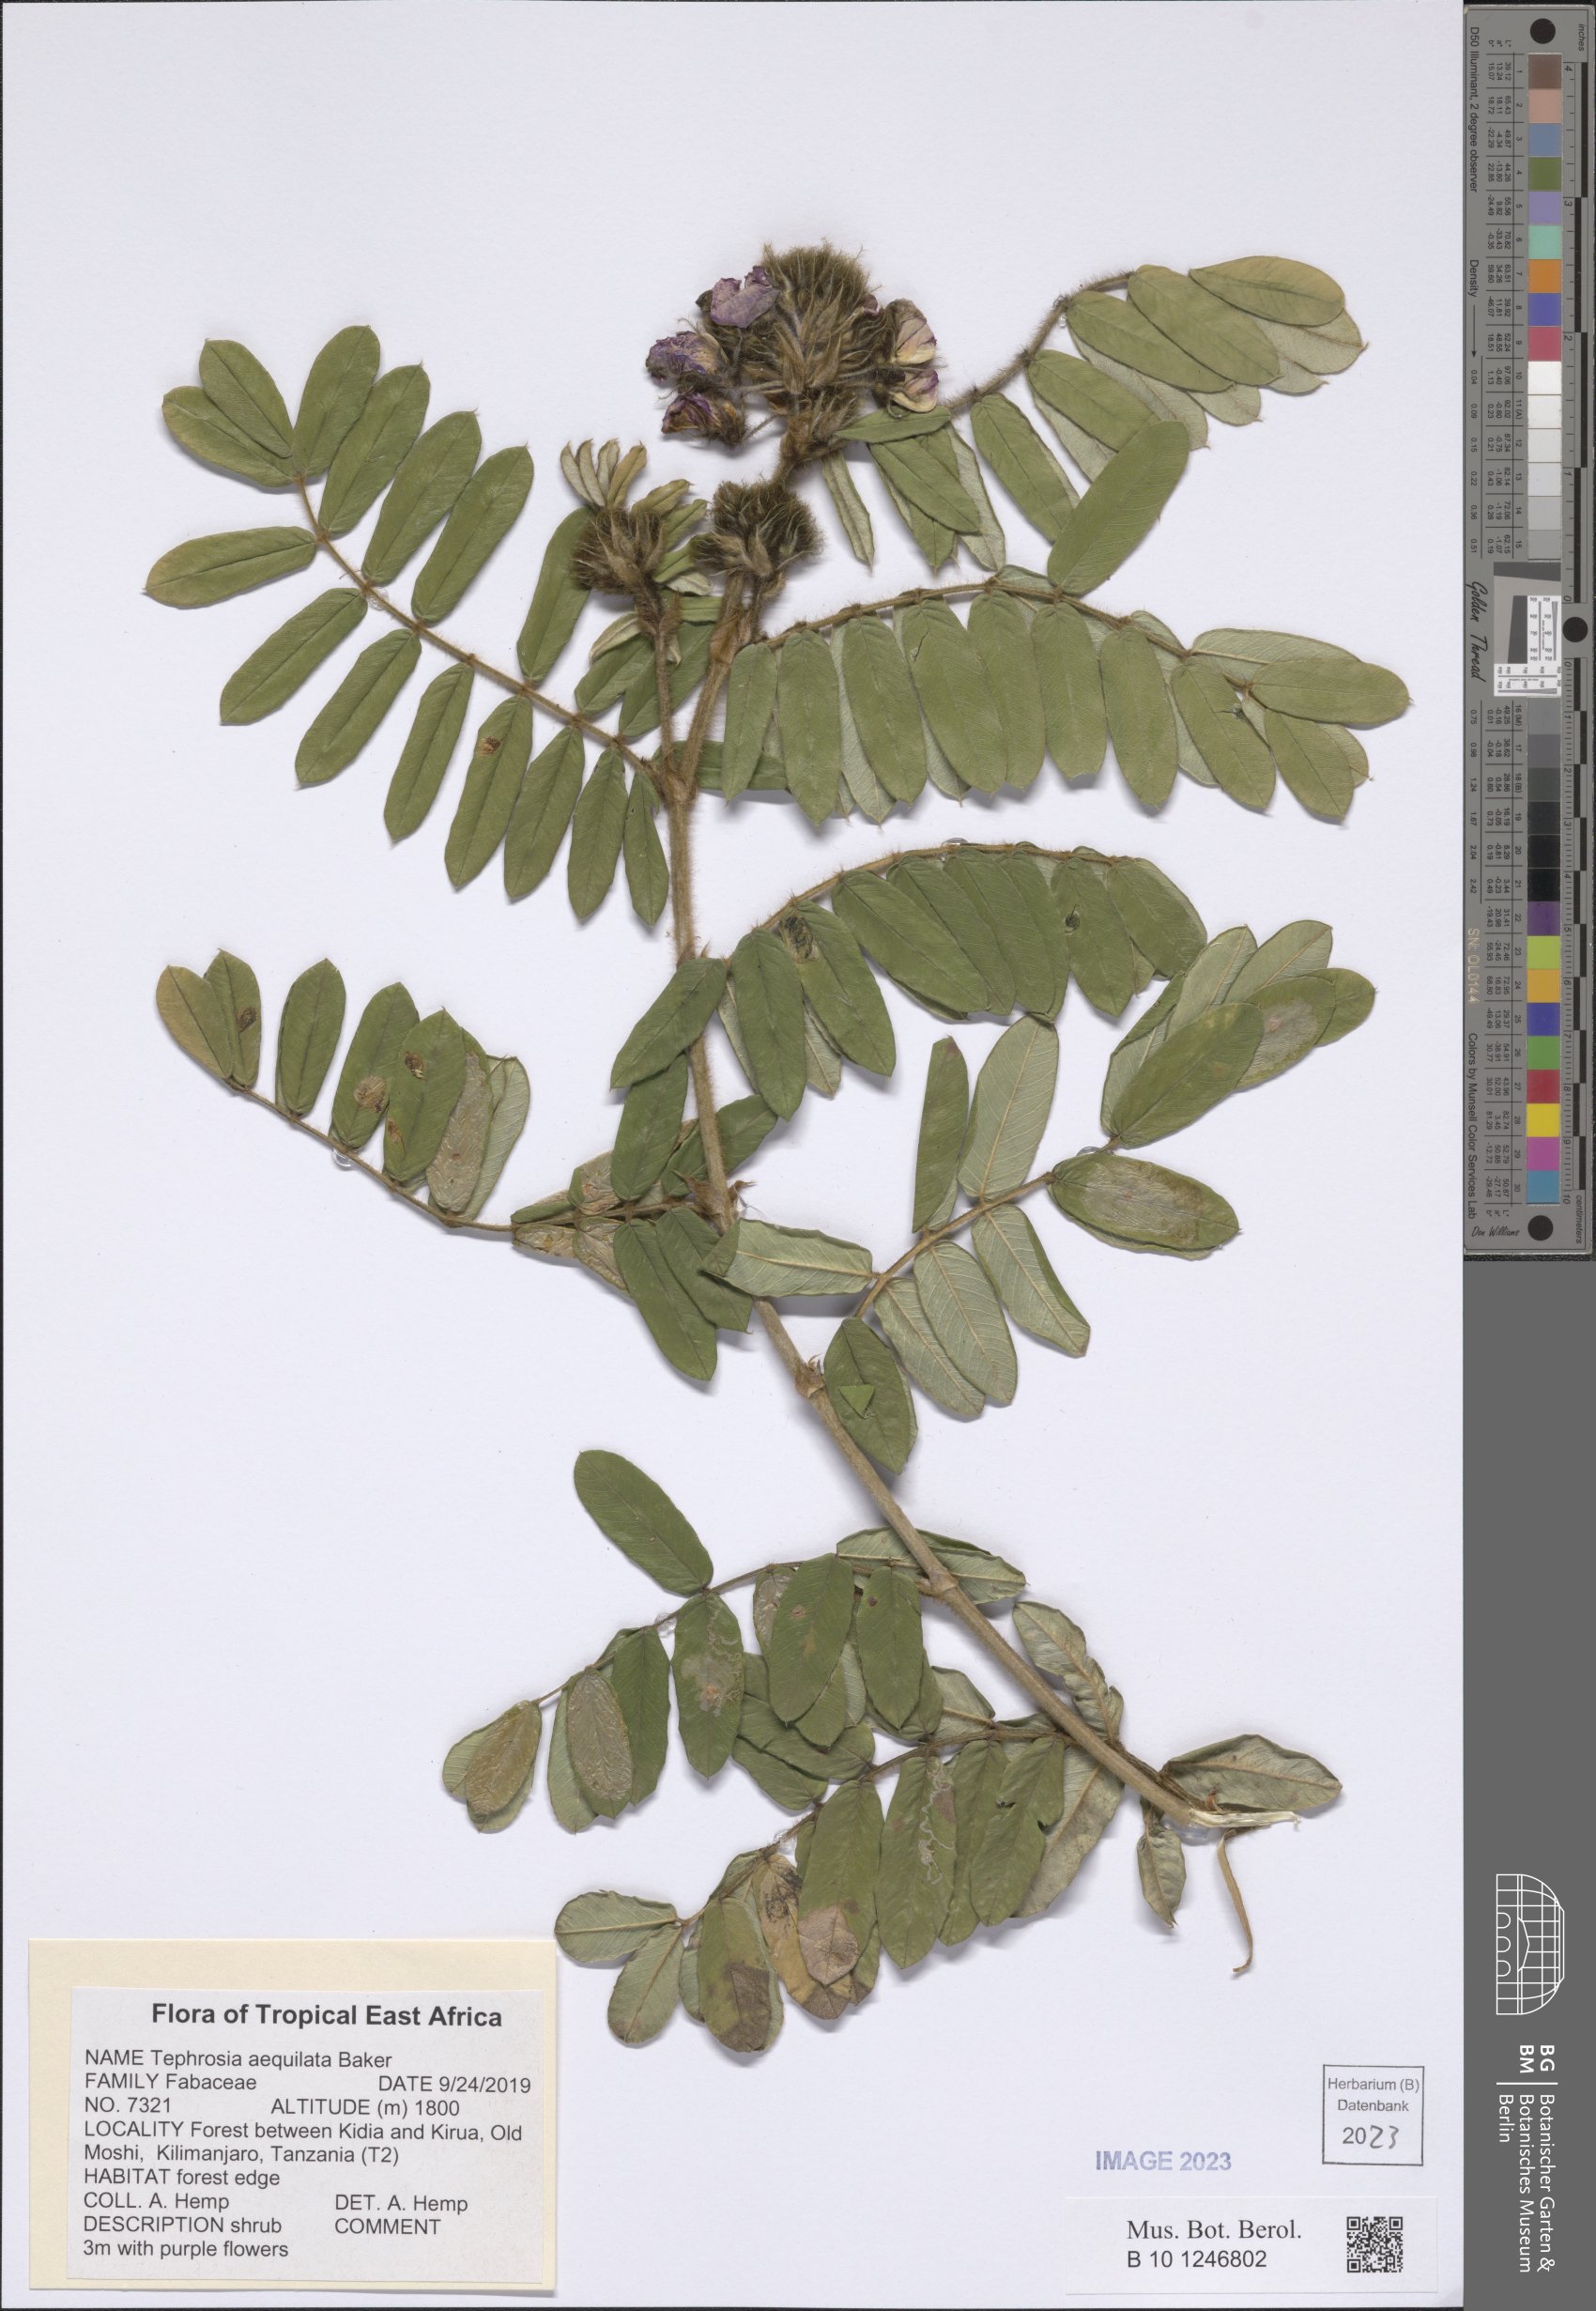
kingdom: Plantae
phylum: Tracheophyta
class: Magnoliopsida
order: Fabales
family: Fabaceae
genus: Tephrosia
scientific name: Tephrosia aequilata
